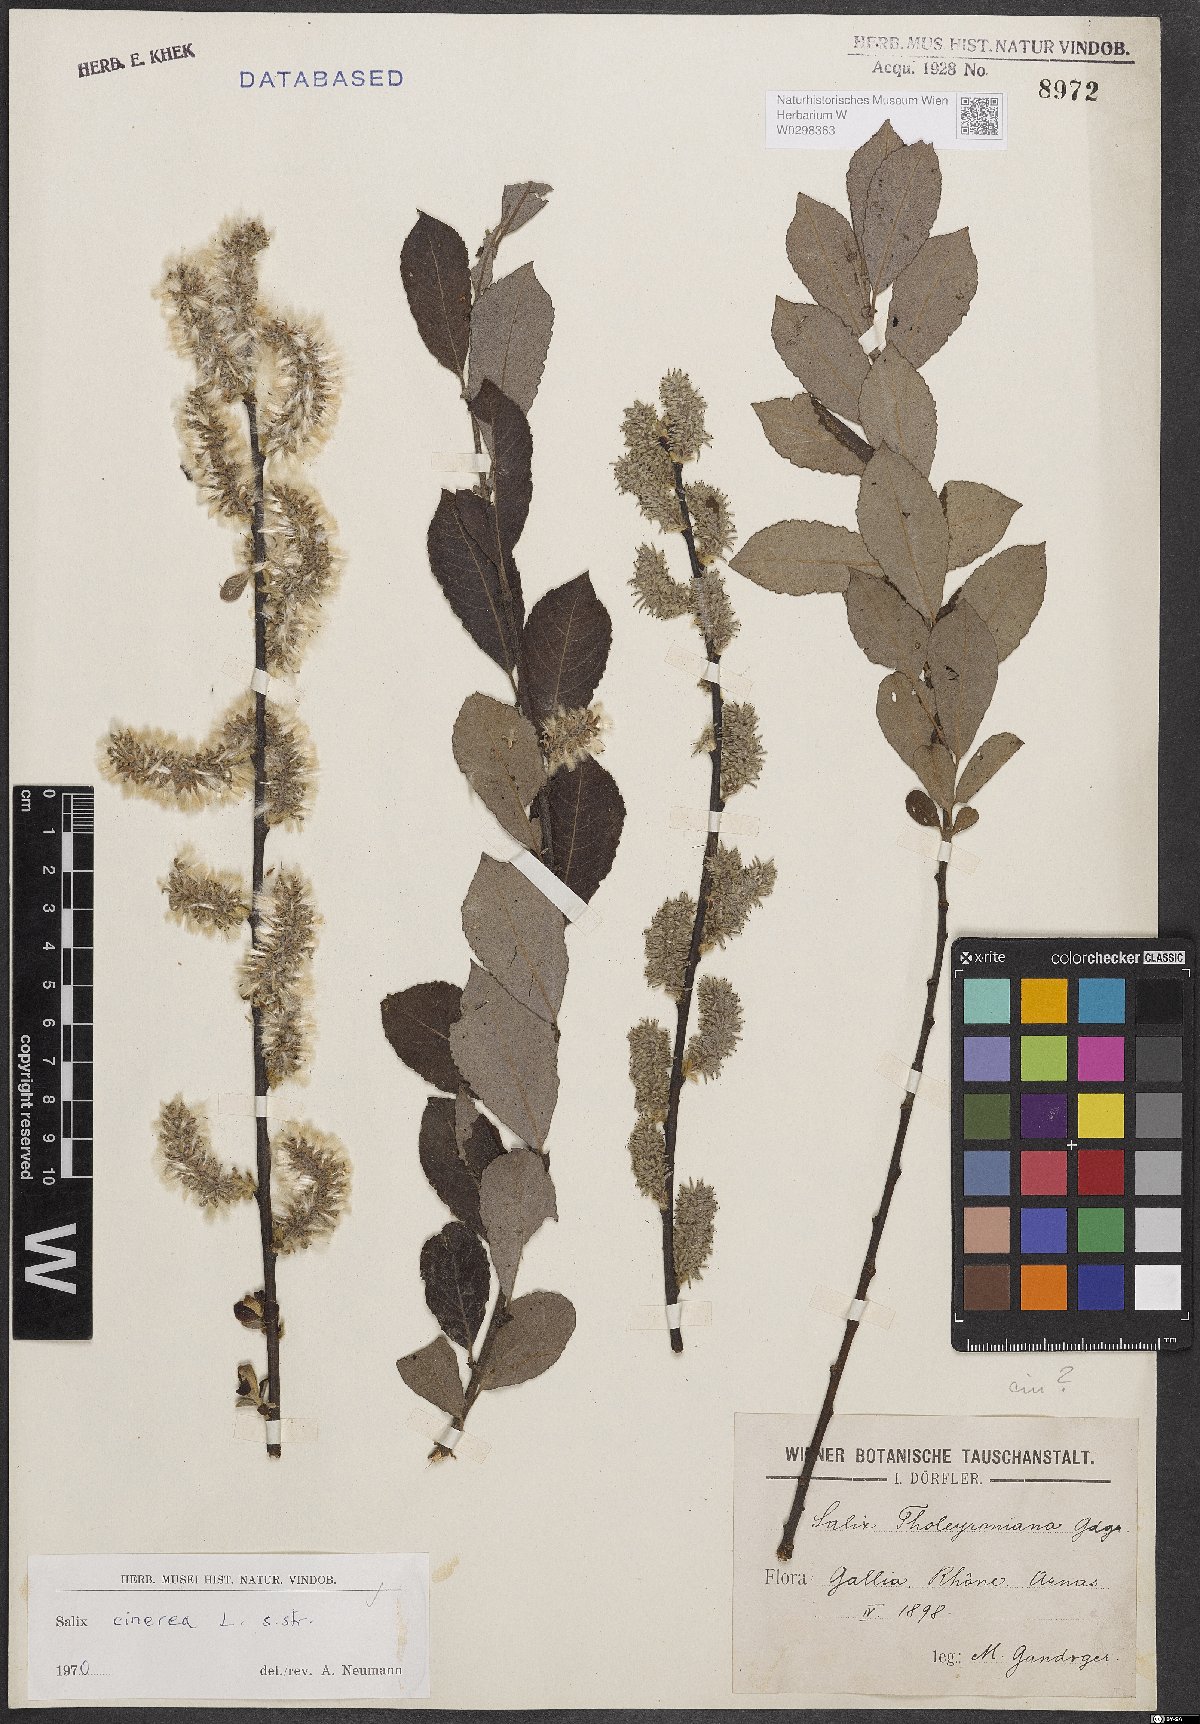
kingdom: Plantae
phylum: Tracheophyta
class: Magnoliopsida
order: Malpighiales
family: Salicaceae
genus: Salix
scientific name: Salix cinerea
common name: Common sallow
